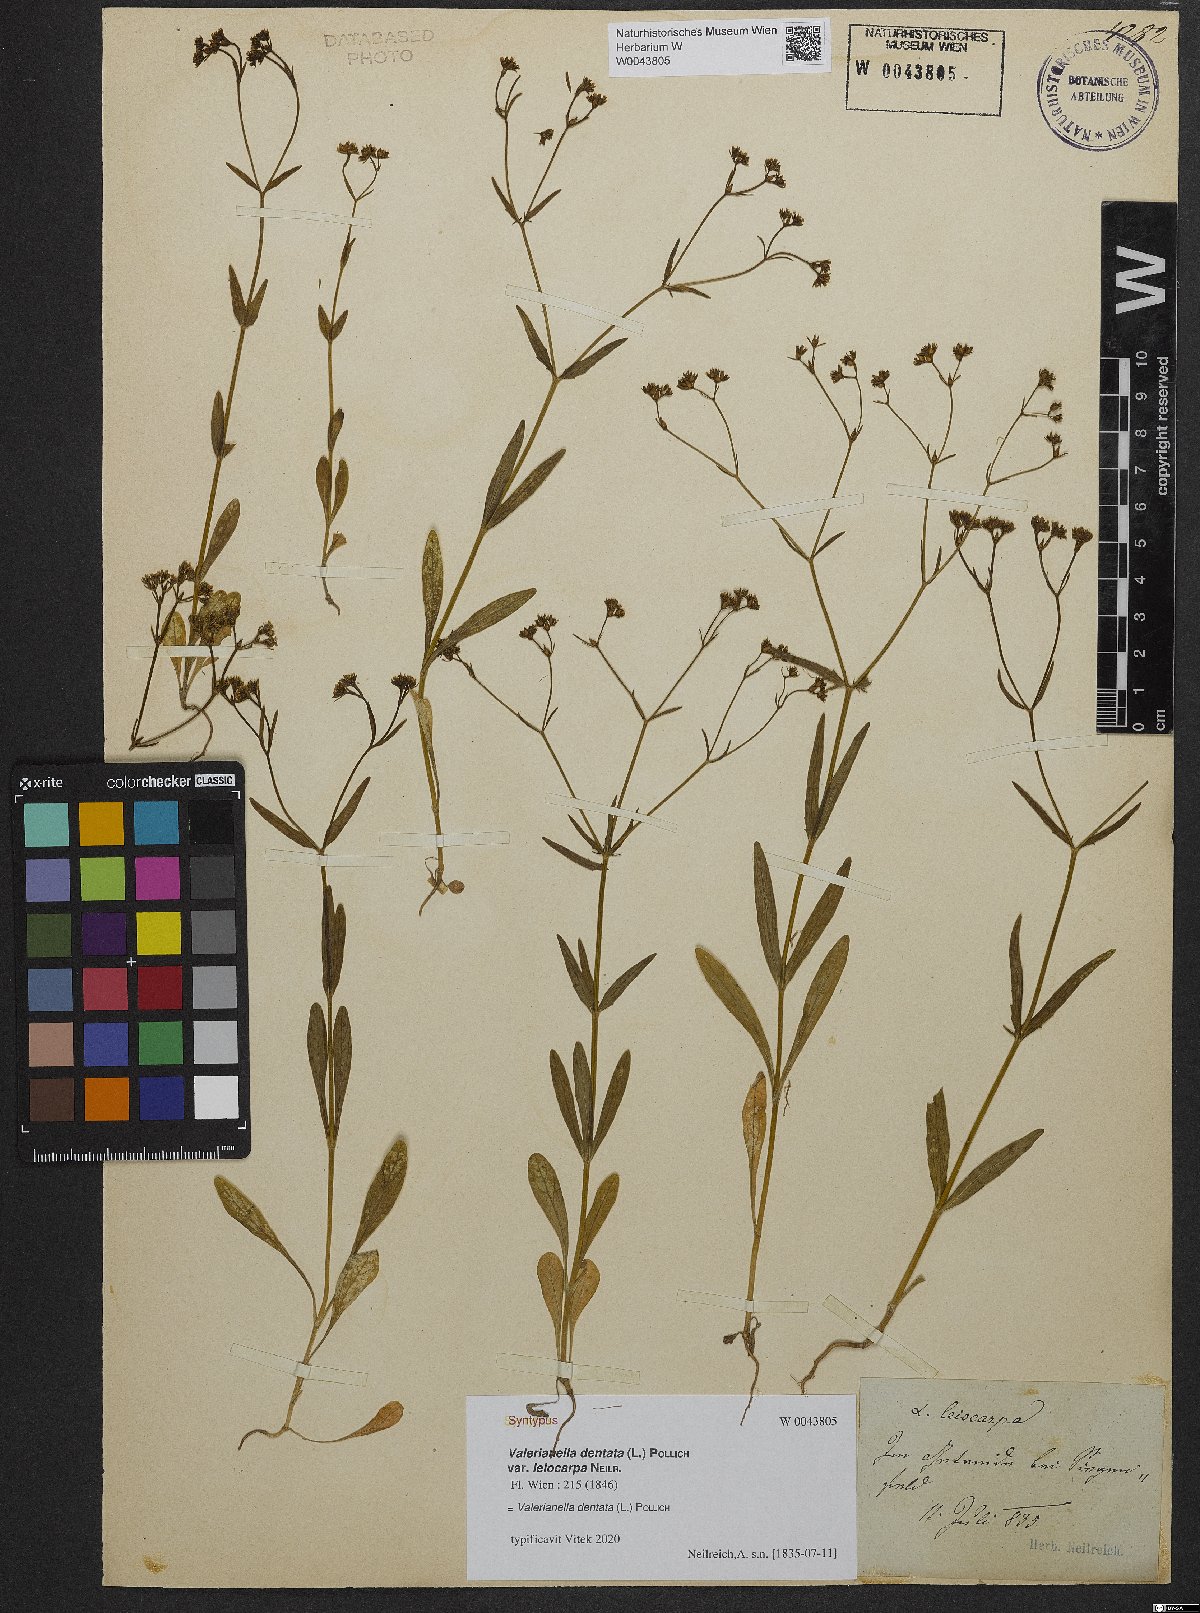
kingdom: Plantae
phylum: Tracheophyta
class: Magnoliopsida
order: Dipsacales
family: Caprifoliaceae
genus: Valerianella
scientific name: Valerianella dentata
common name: Narrow-fruited cornsalad
